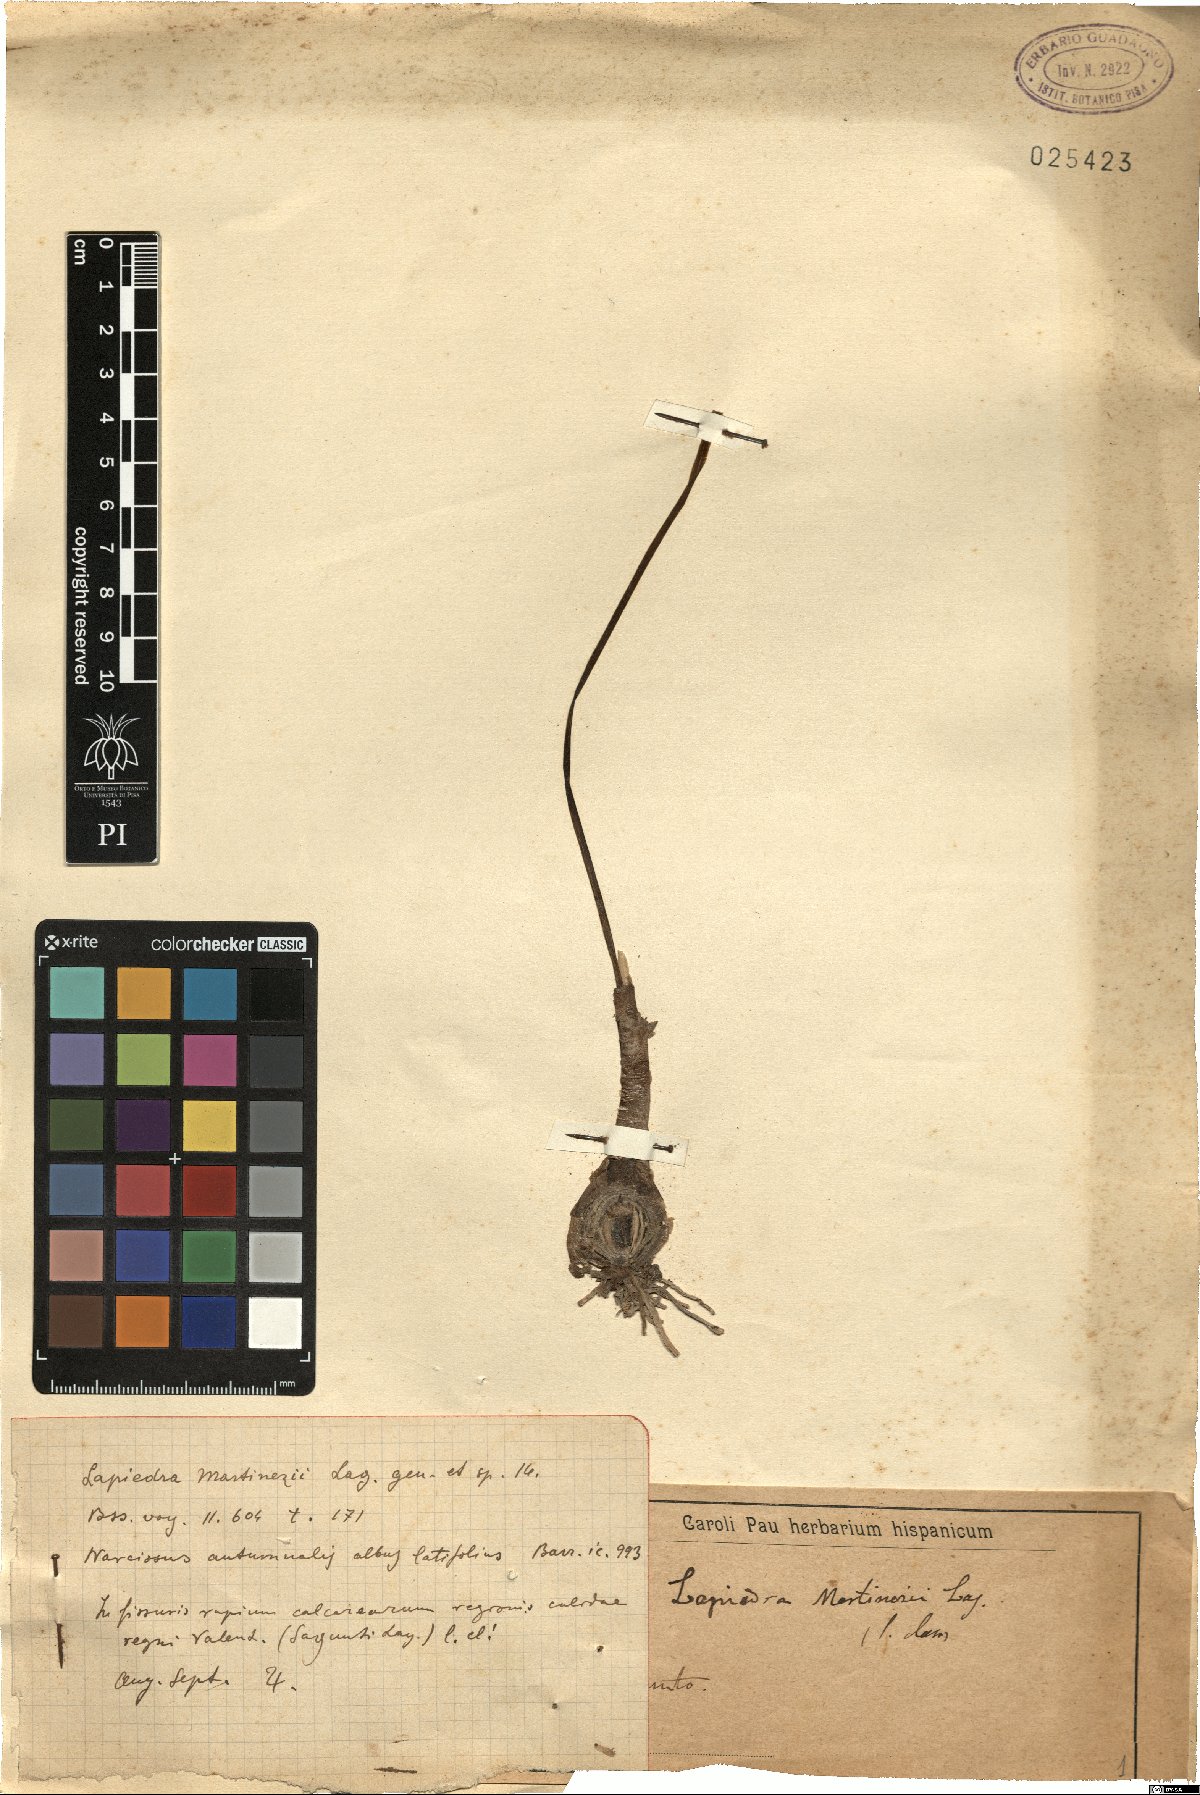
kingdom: Plantae
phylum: Tracheophyta
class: Liliopsida
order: Asparagales
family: Amaryllidaceae
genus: Lapiedra
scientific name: Lapiedra martinezii
